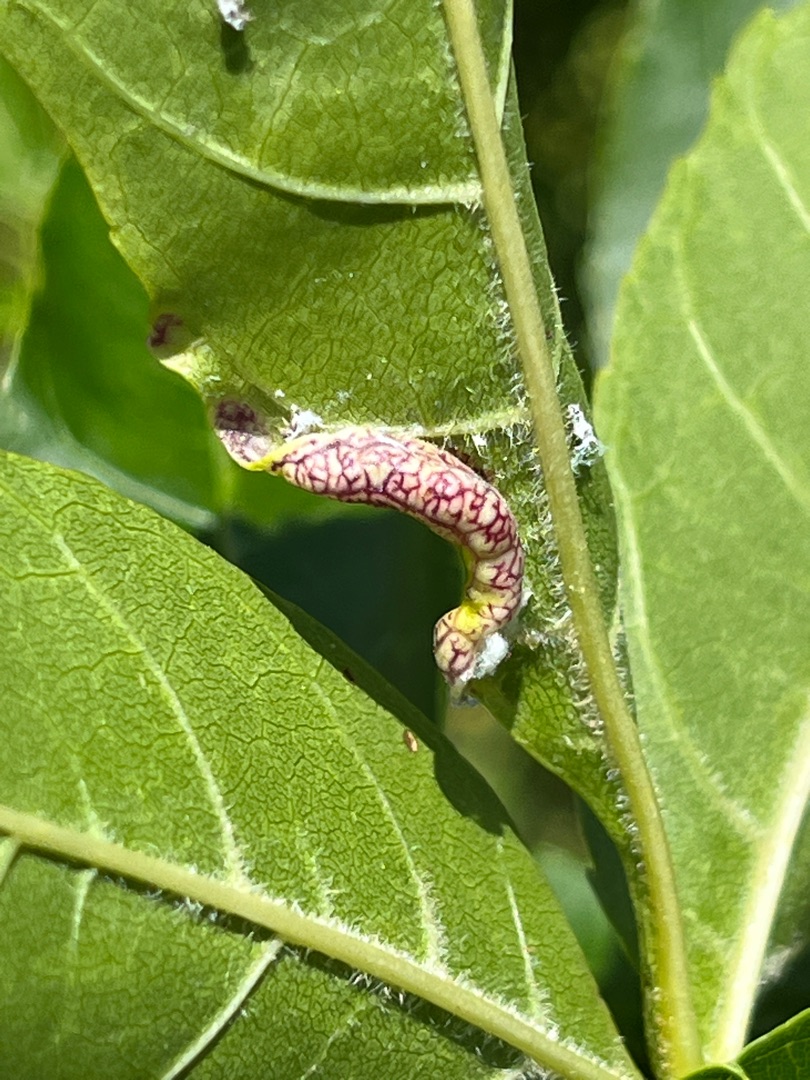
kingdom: Animalia
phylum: Arthropoda
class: Insecta
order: Hemiptera
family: Liviidae
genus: Psyllopsis
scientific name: Psyllopsis fraxini
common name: Broget askebladloppe
